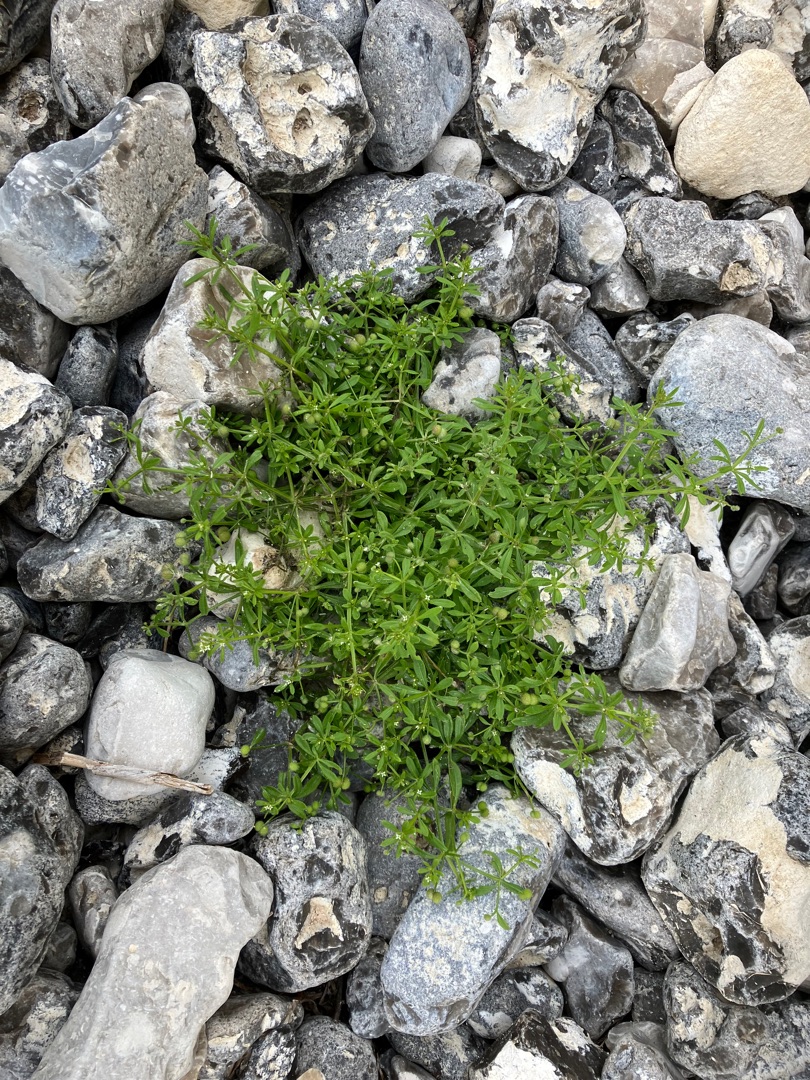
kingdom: Plantae
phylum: Tracheophyta
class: Magnoliopsida
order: Gentianales
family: Rubiaceae
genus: Galium
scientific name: Galium aparine
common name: Burre-snerre
